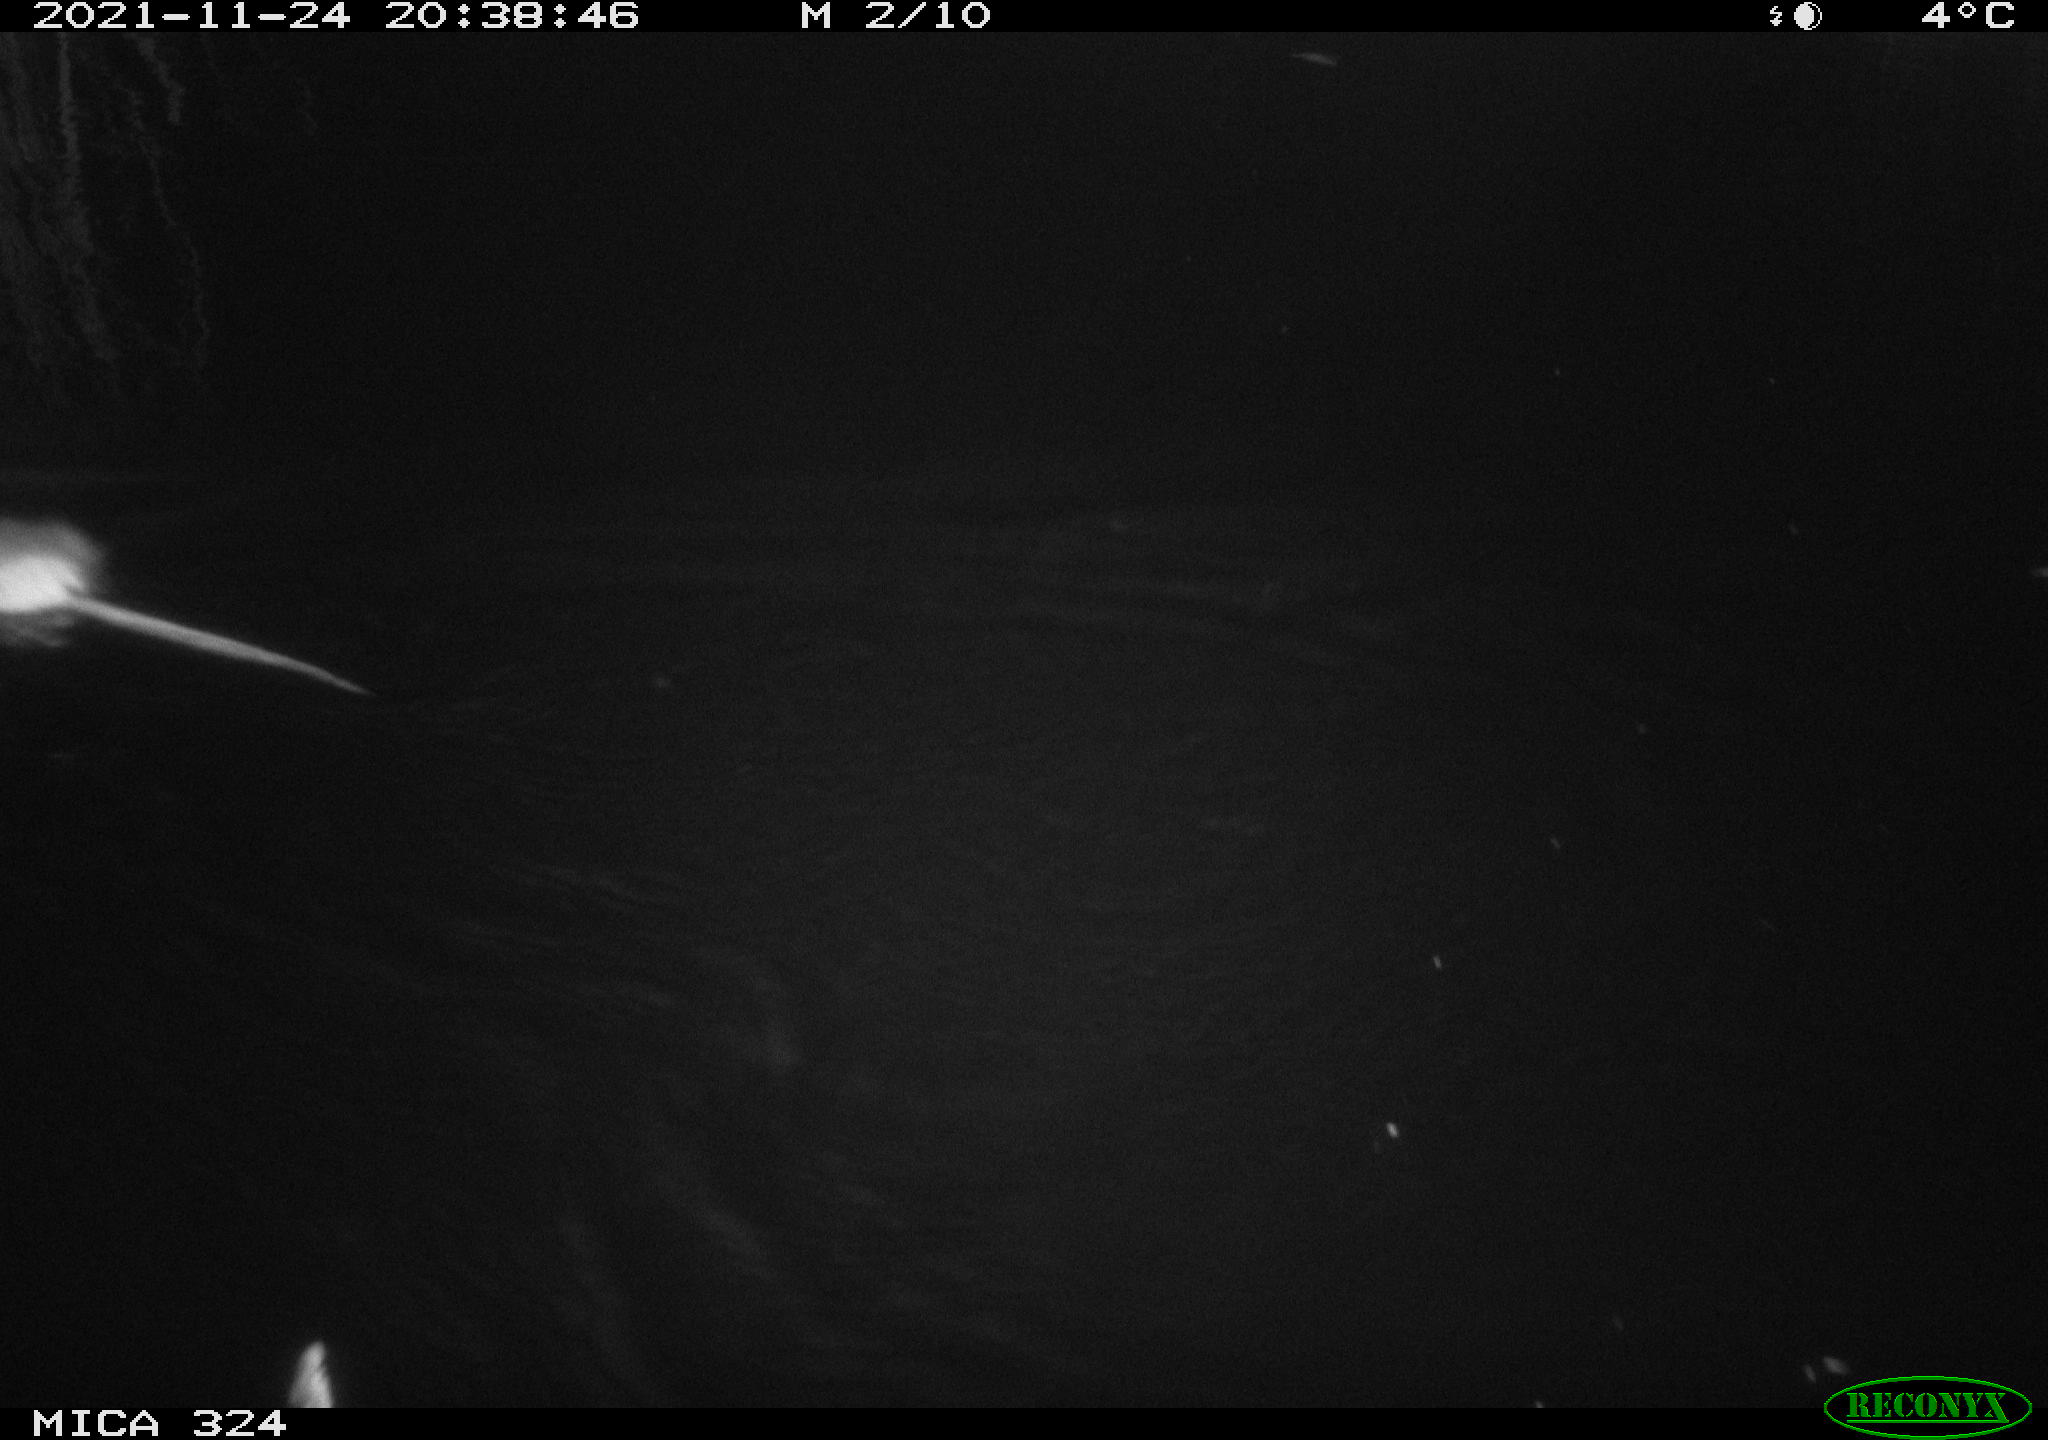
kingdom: Animalia
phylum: Chordata
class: Mammalia
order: Rodentia
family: Cricetidae
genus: Ondatra
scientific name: Ondatra zibethicus
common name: Muskrat
